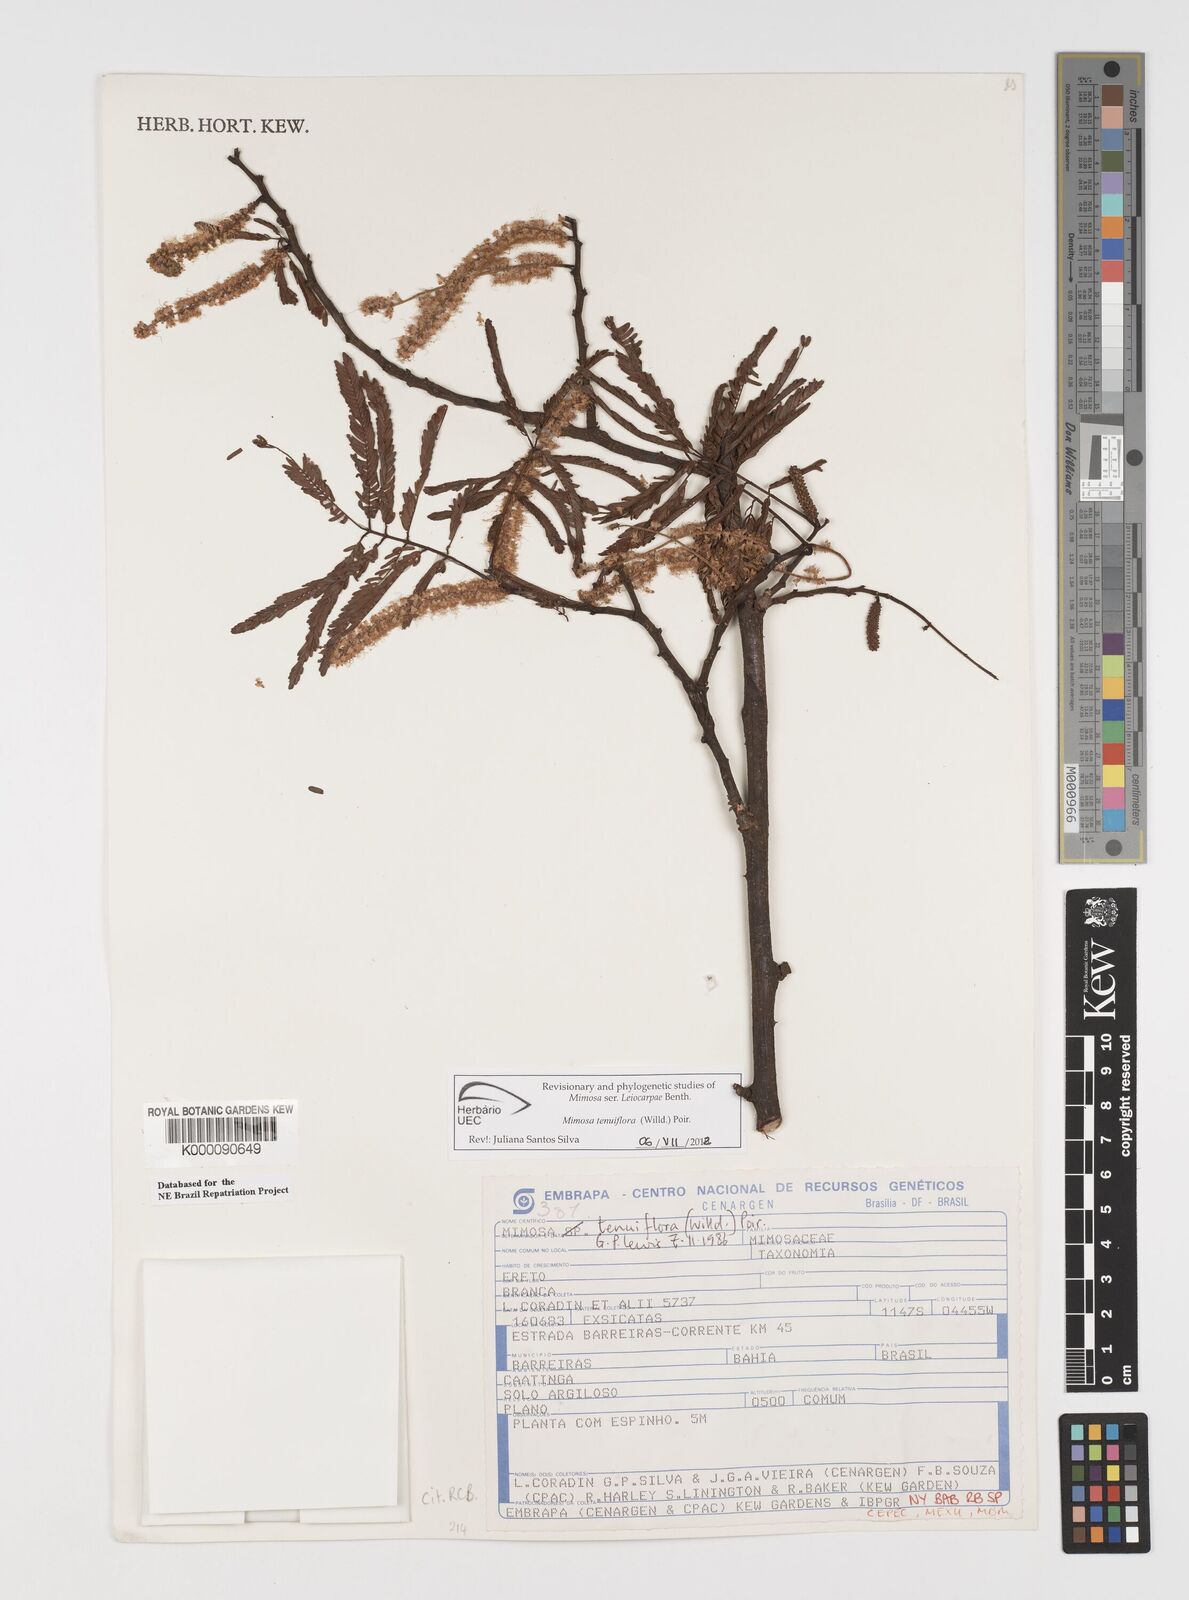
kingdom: Plantae
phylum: Tracheophyta
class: Magnoliopsida
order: Fabales
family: Fabaceae
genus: Mimosa
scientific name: Mimosa tenuiflora
